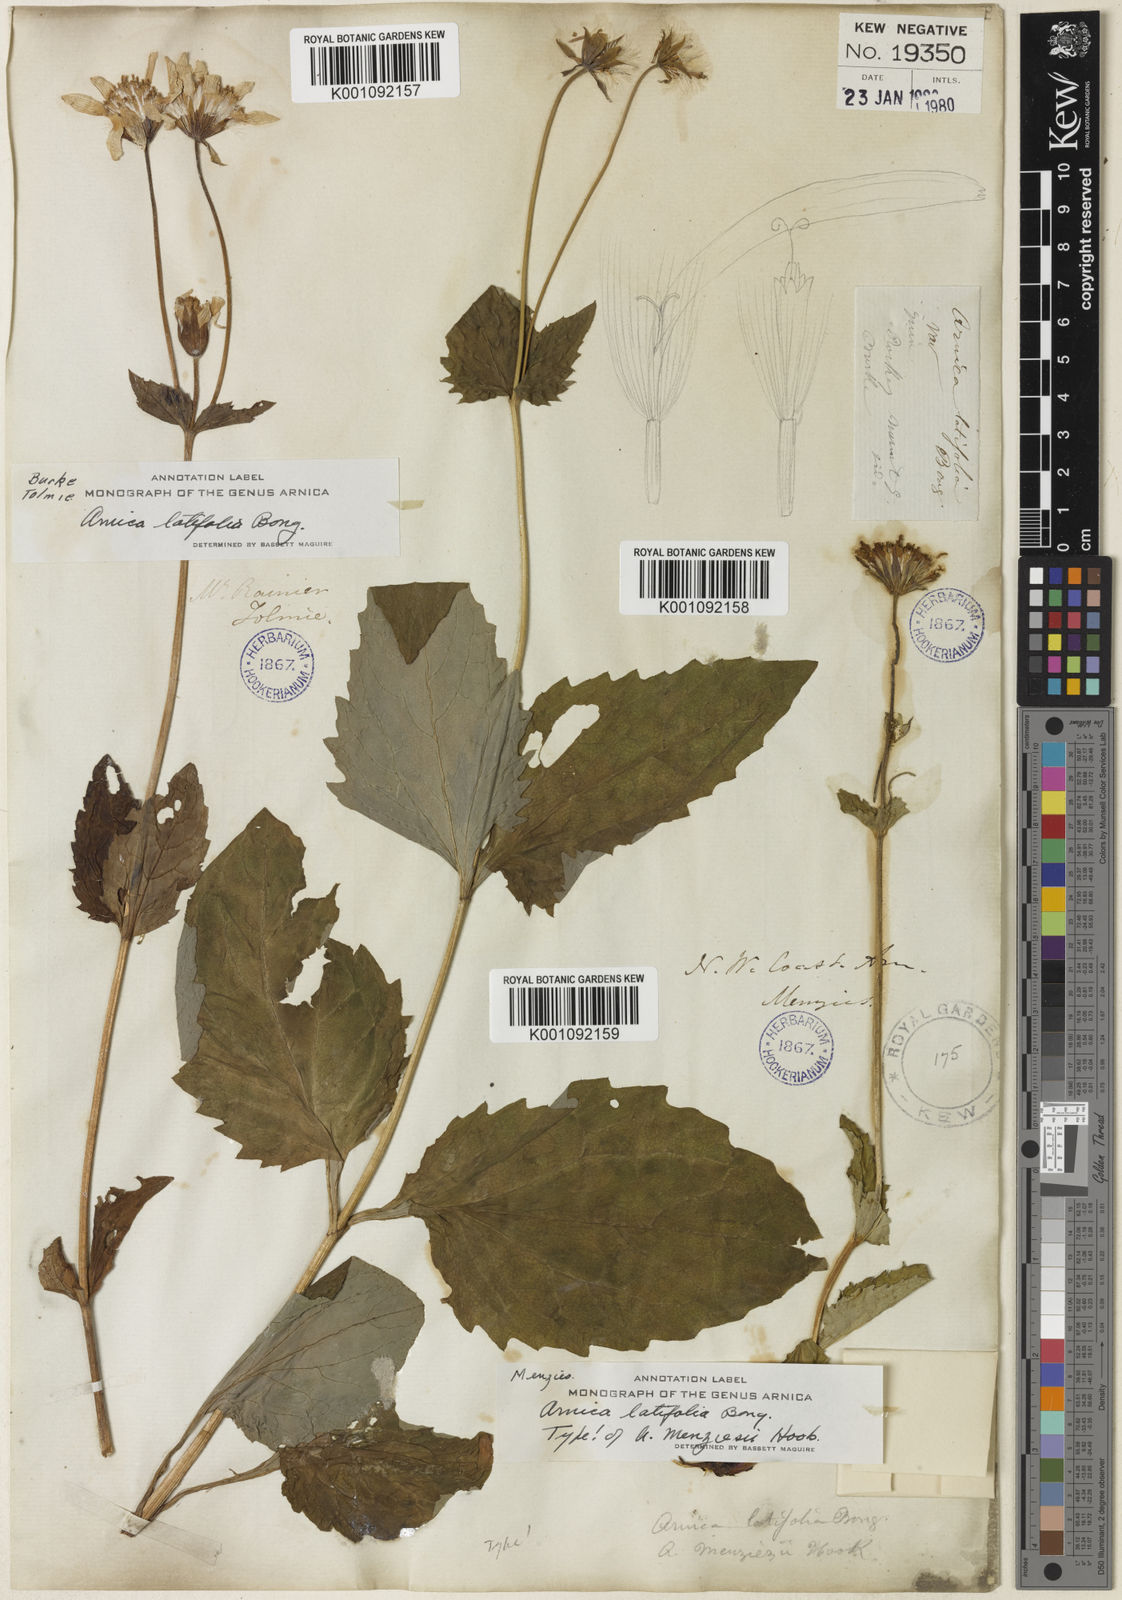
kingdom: Plantae
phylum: Tracheophyta
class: Magnoliopsida
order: Asterales
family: Asteraceae
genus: Arnica
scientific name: Arnica latifolia
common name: Arnica
